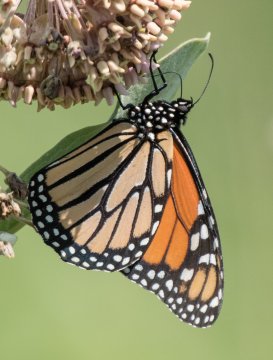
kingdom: Animalia
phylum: Arthropoda
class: Insecta
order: Lepidoptera
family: Nymphalidae
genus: Danaus
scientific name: Danaus plexippus
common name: Monarch
